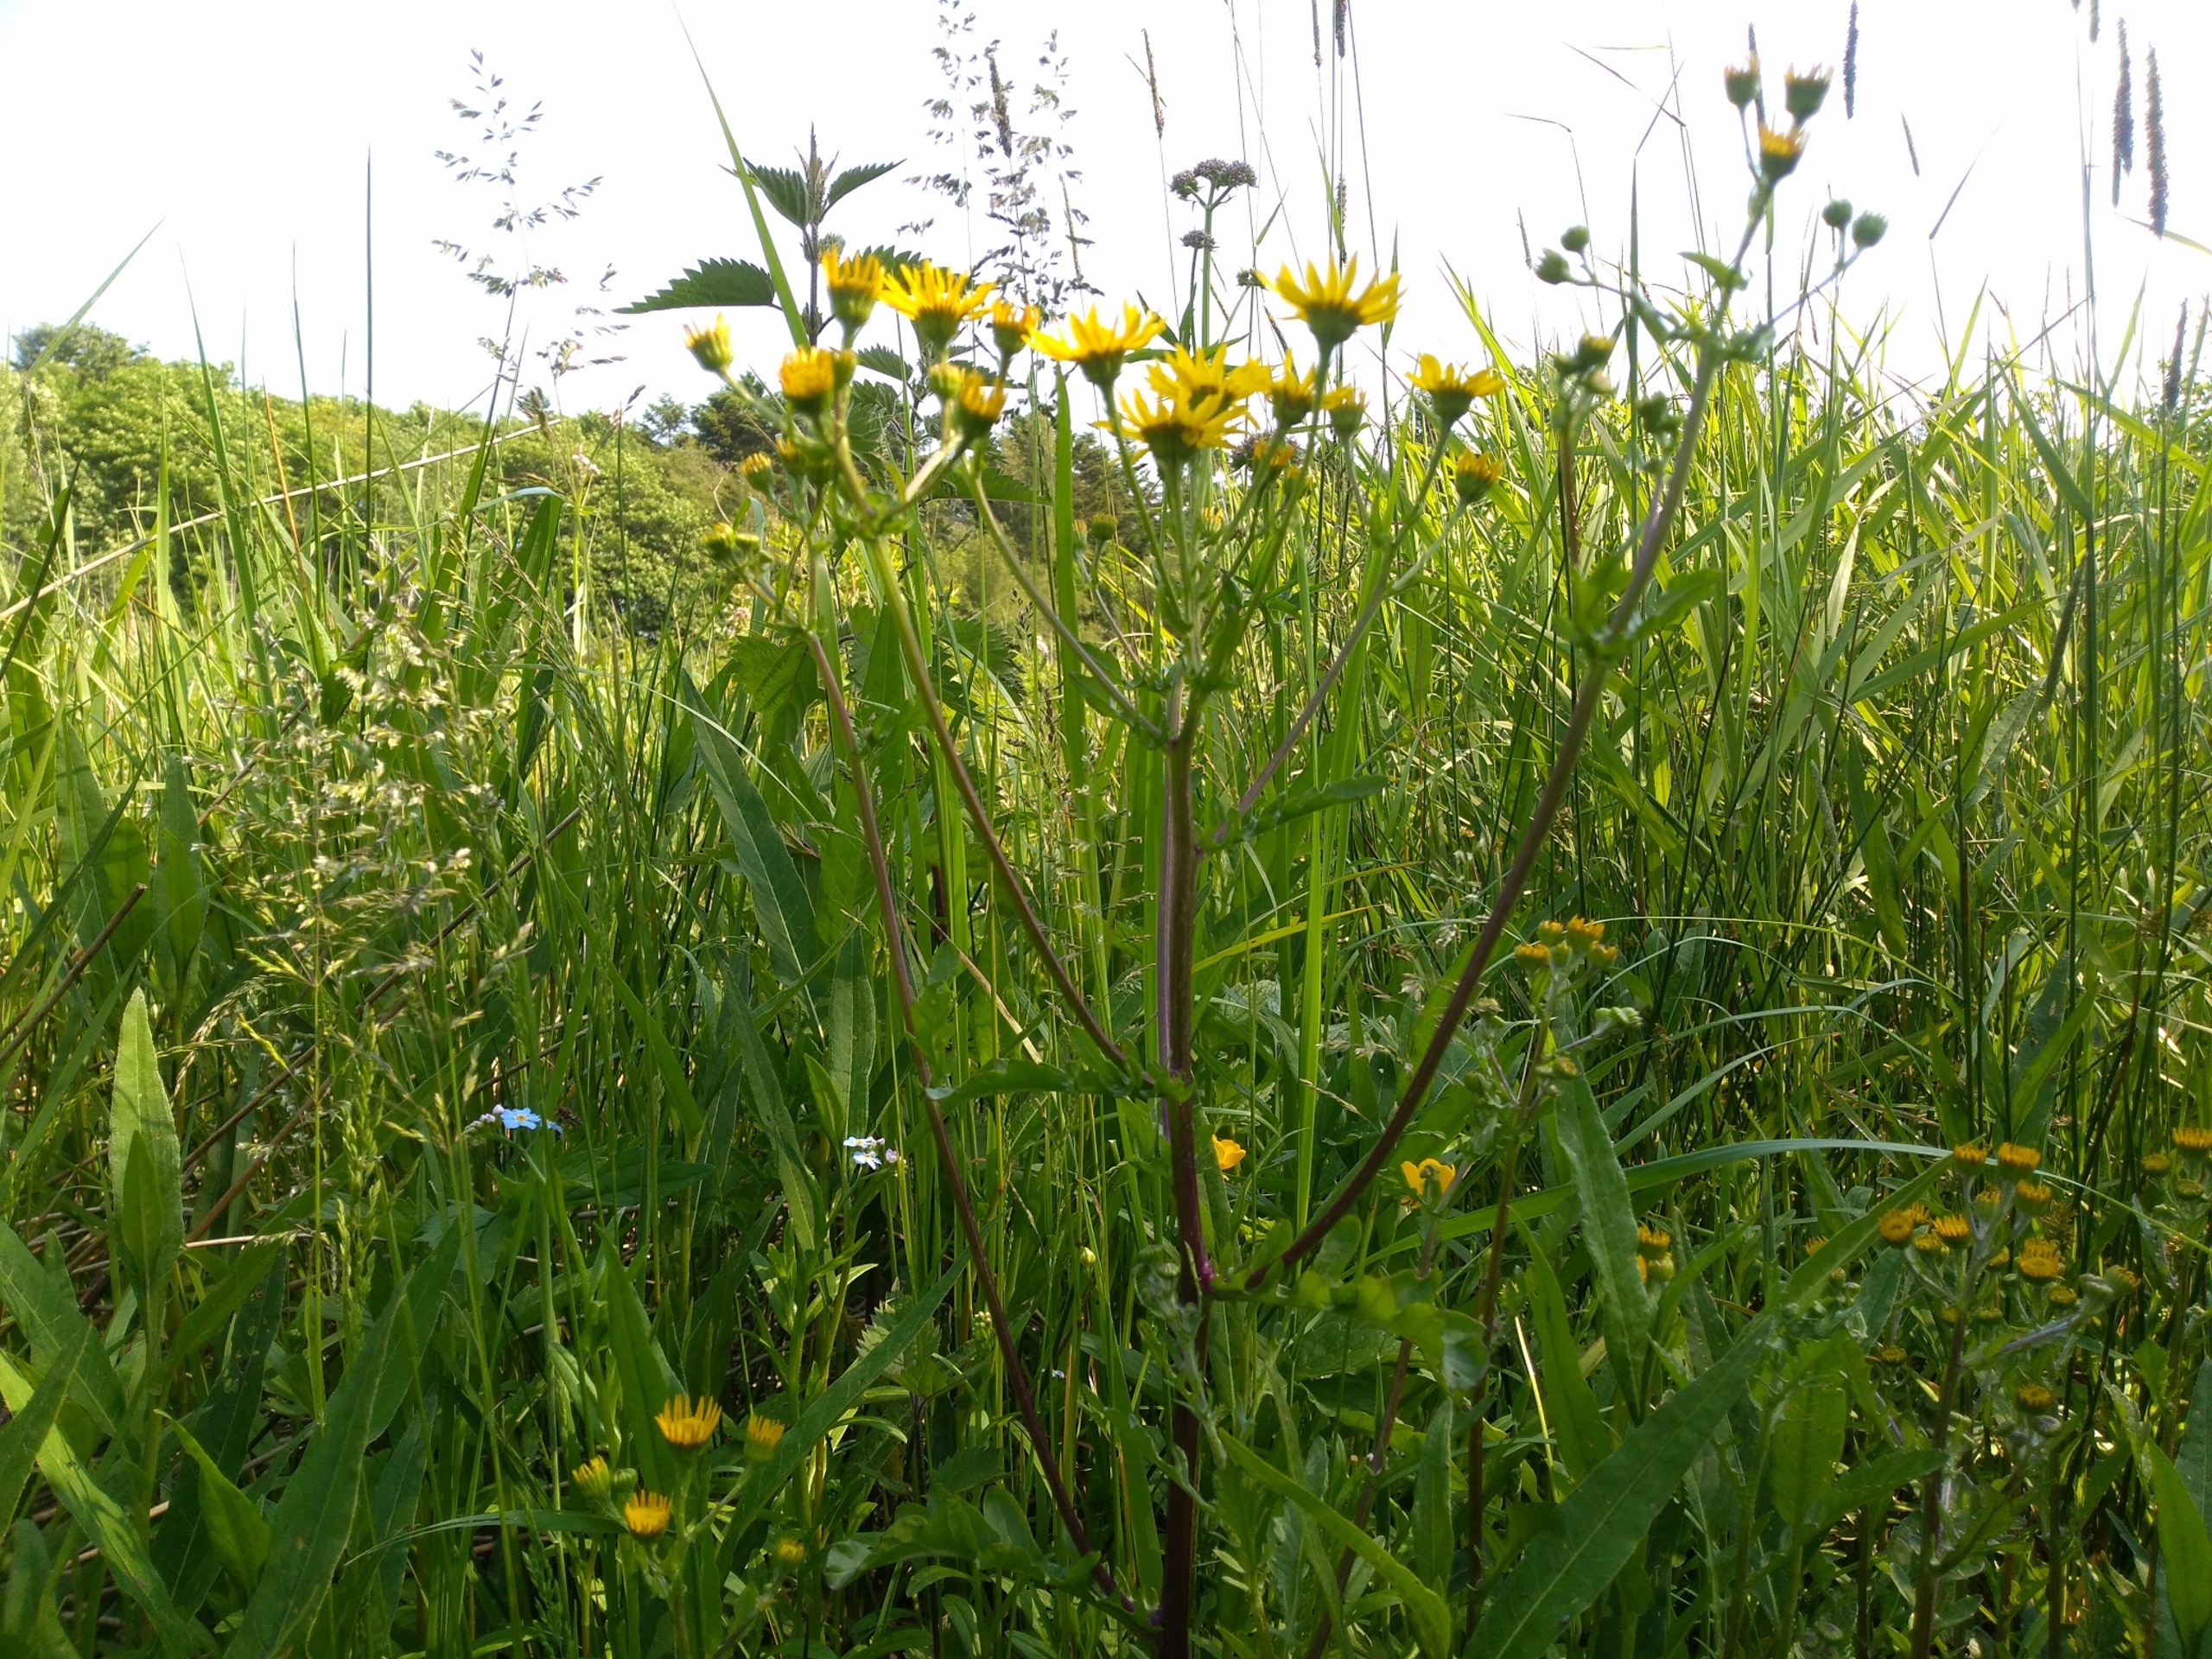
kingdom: Plantae
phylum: Tracheophyta
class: Magnoliopsida
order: Asterales
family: Asteraceae
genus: Jacobaea
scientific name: Jacobaea aquatica
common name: Vand-brandbæger
